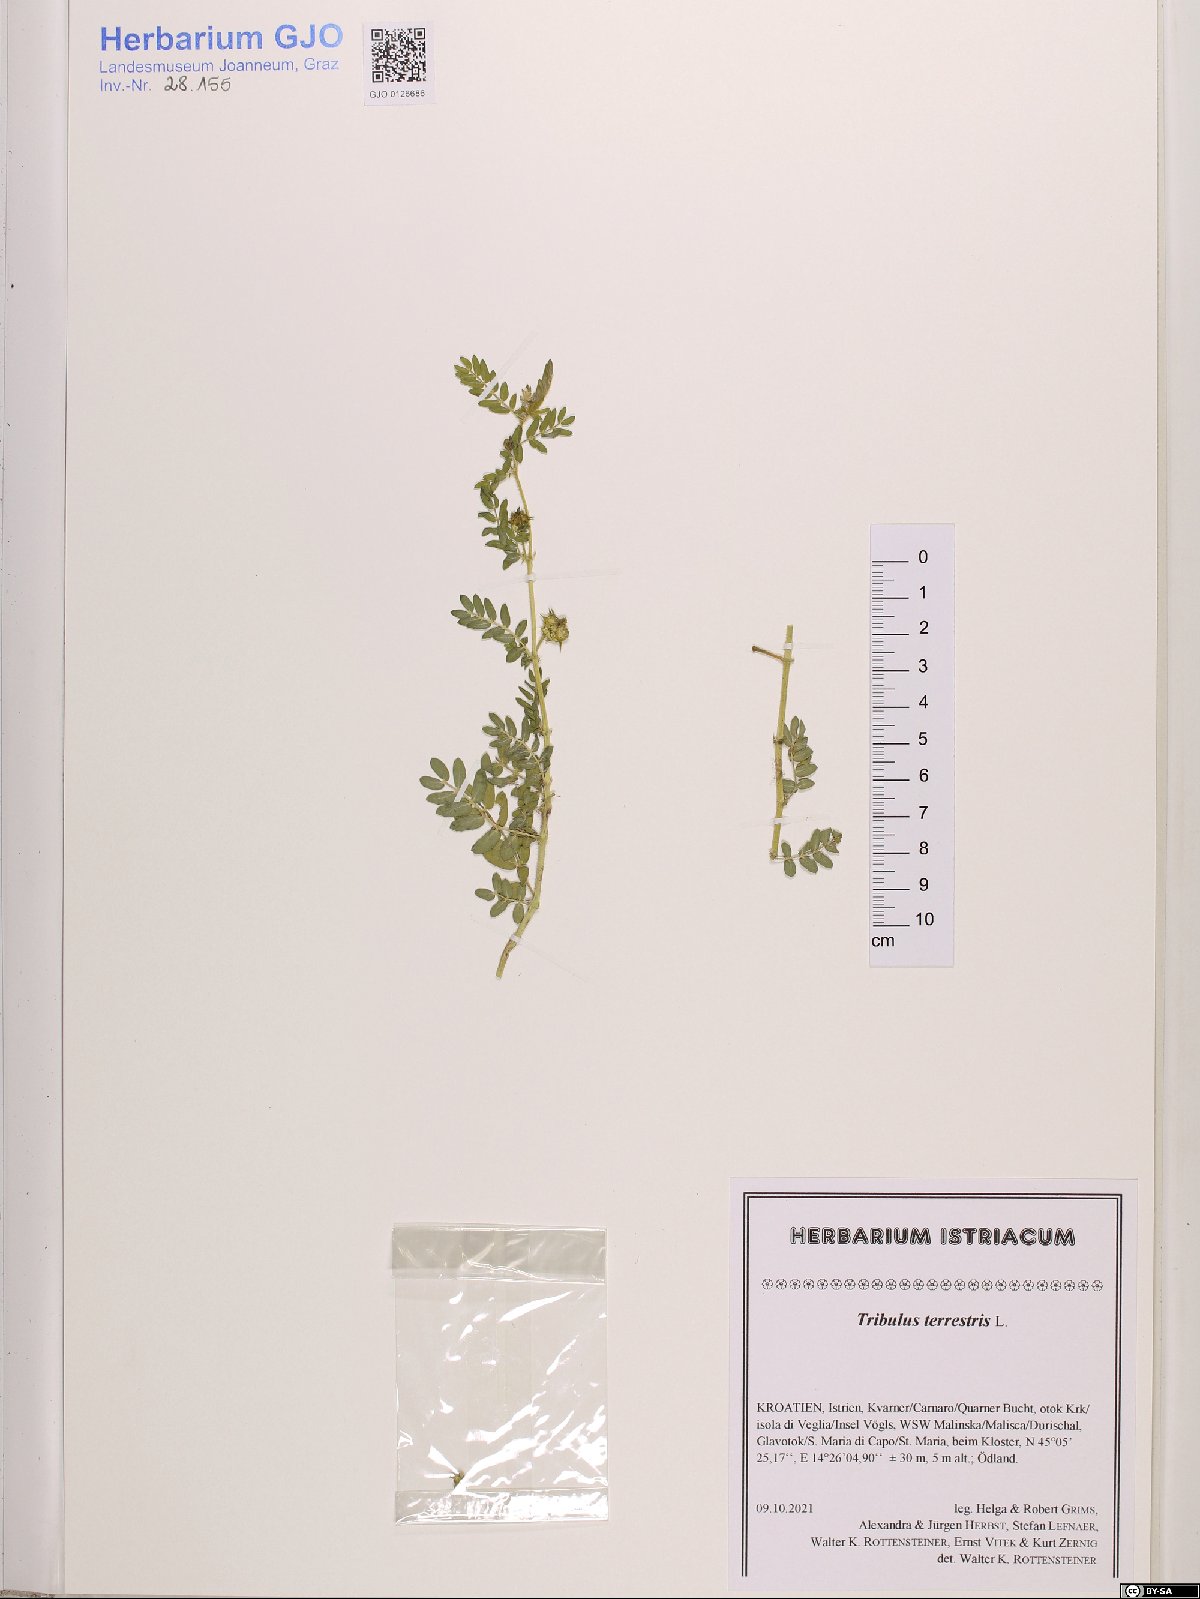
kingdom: Plantae
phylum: Tracheophyta
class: Magnoliopsida
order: Zygophyllales
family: Zygophyllaceae
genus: Tribulus
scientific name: Tribulus terrestris
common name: Puncturevine
